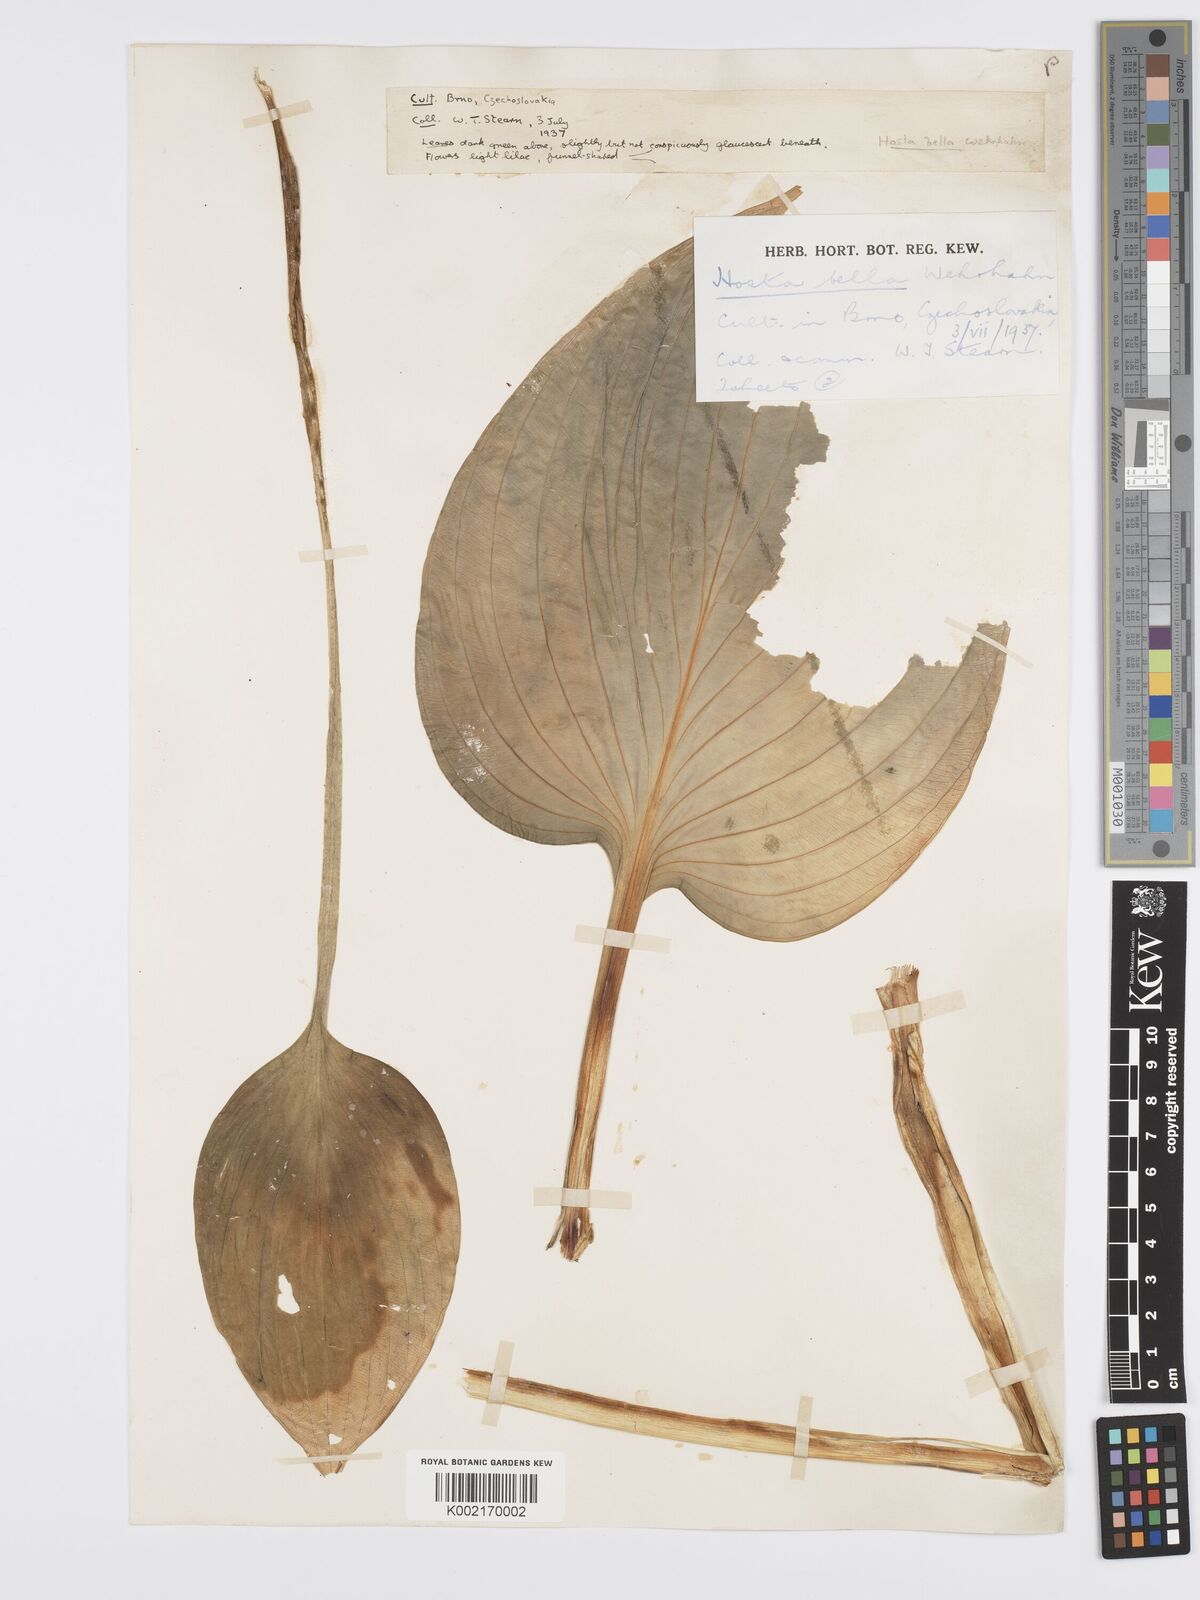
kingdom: Plantae
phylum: Tracheophyta
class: Liliopsida
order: Asparagales
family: Asparagaceae
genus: Hosta
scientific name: Hosta sieboldiana
